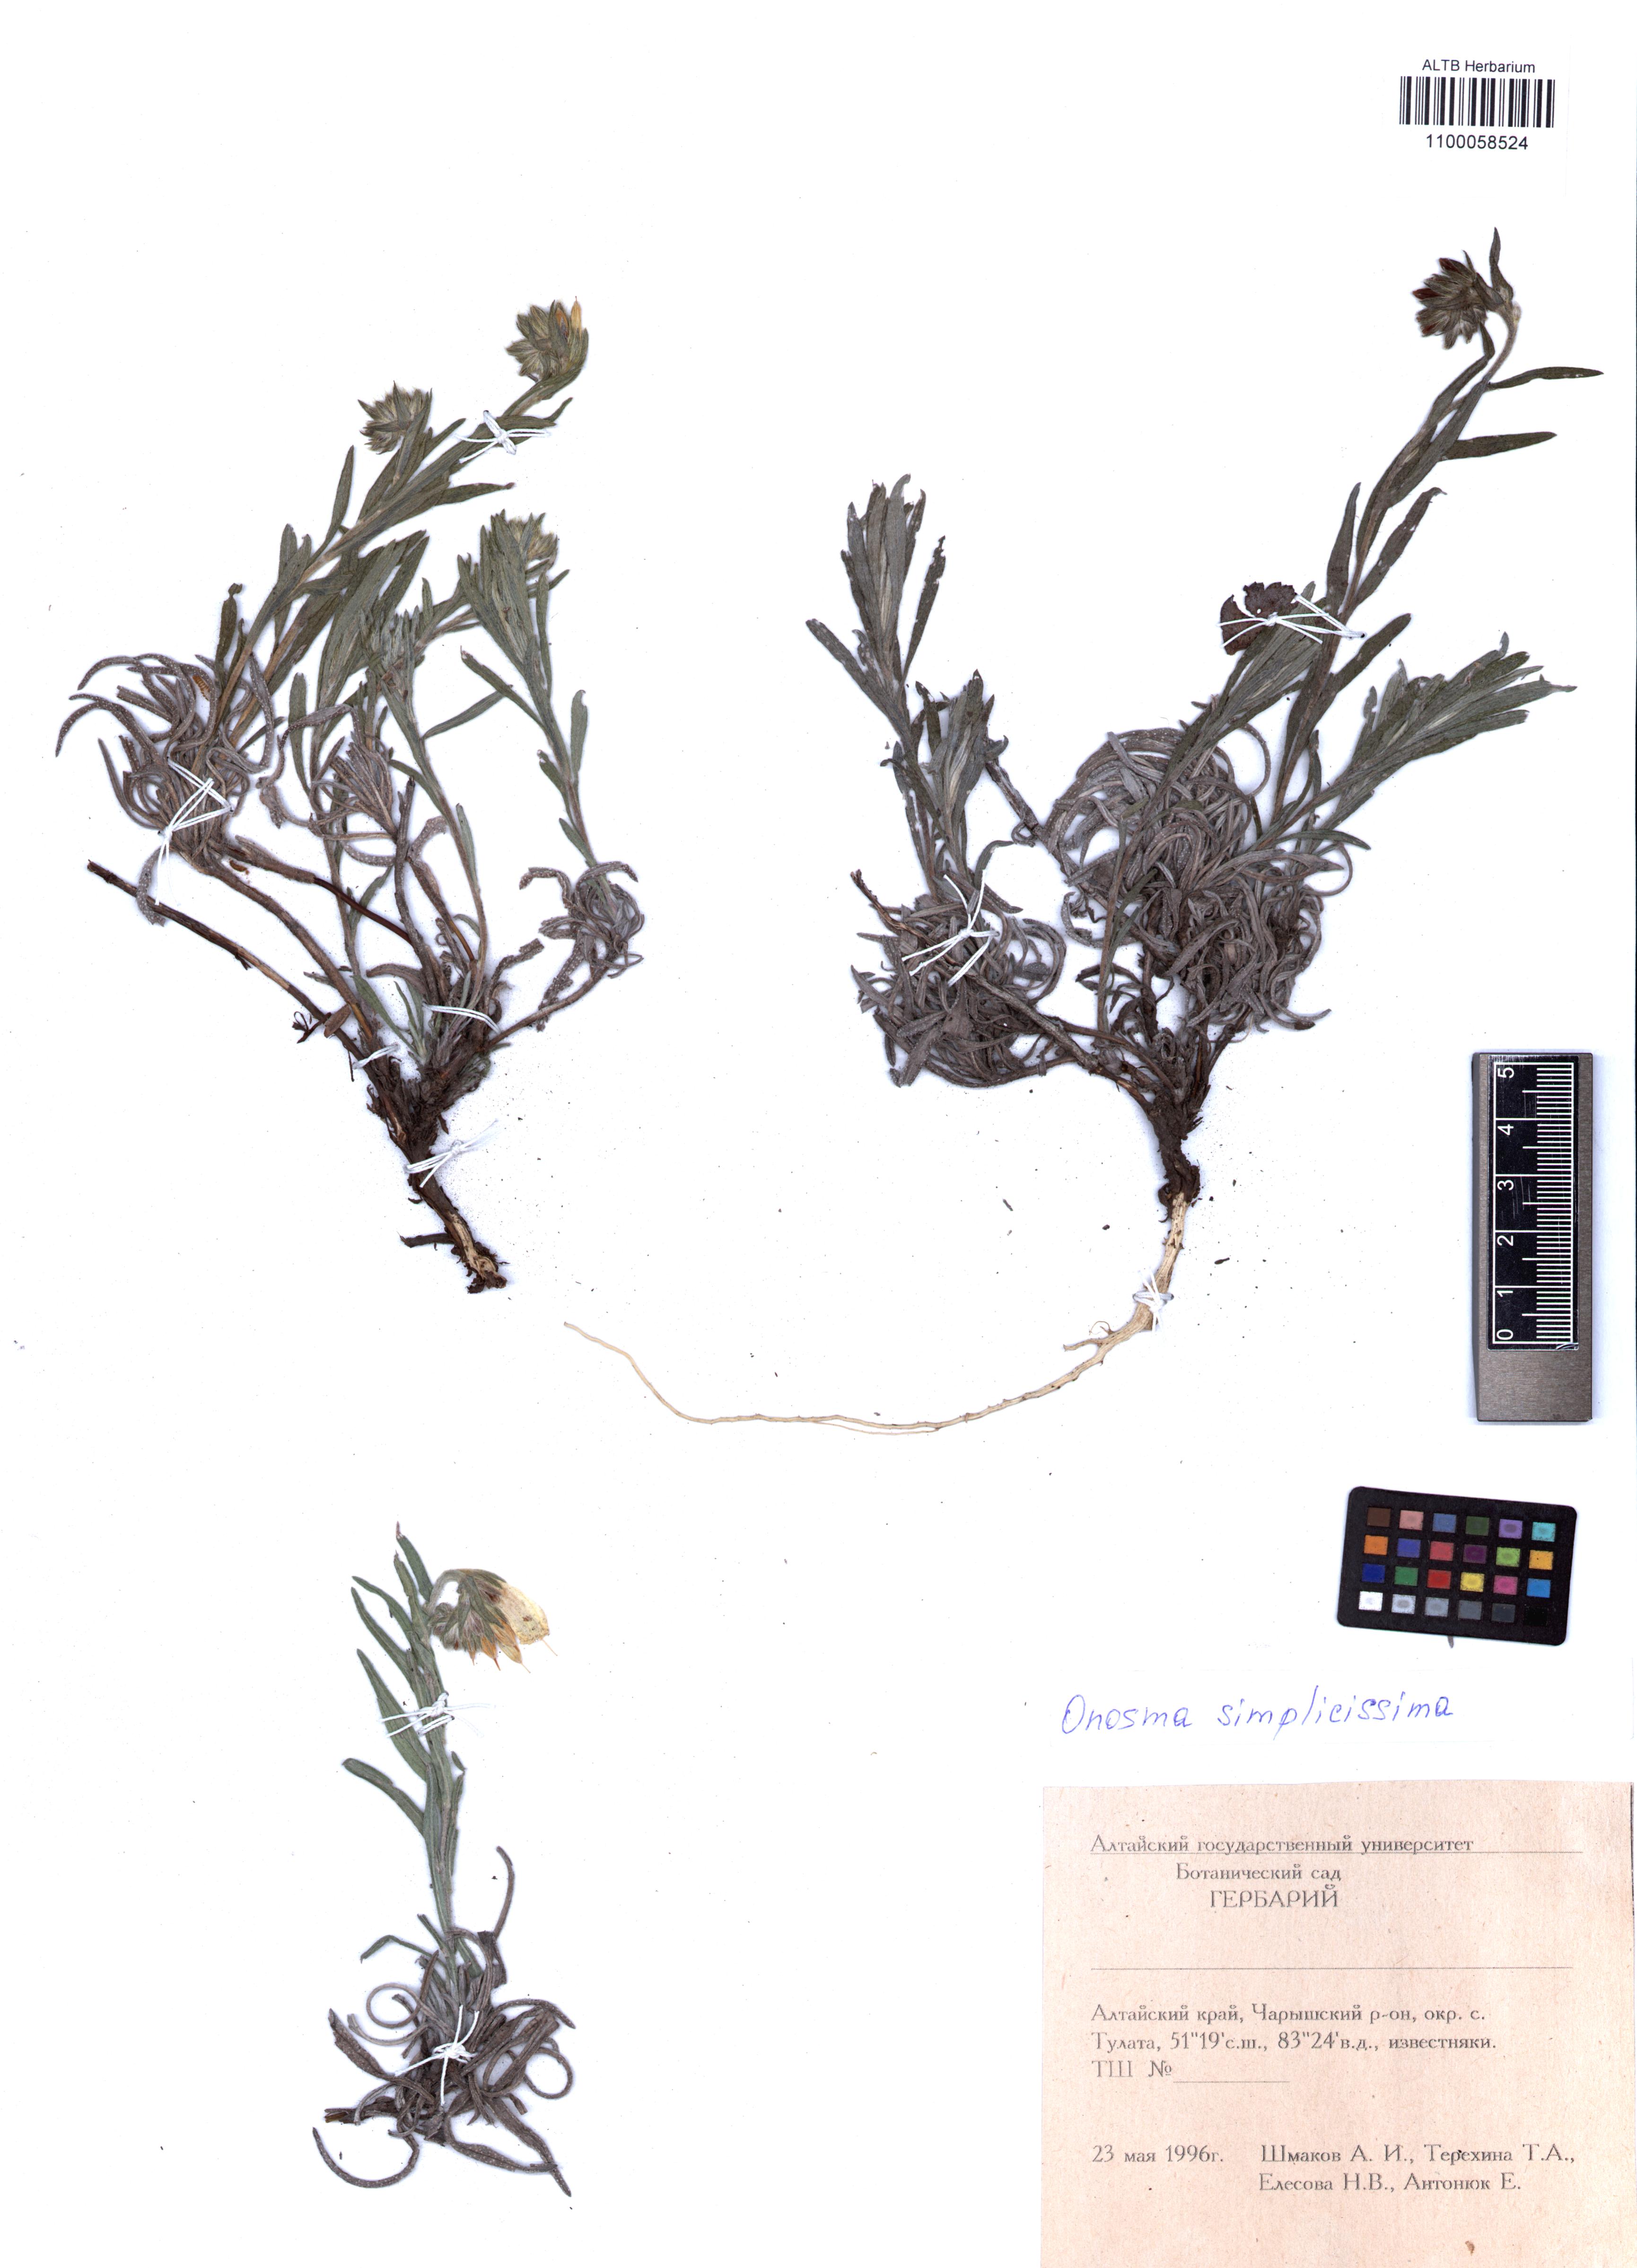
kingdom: Plantae
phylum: Tracheophyta
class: Magnoliopsida
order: Boraginales
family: Boraginaceae
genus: Onosma
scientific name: Onosma simplicissima
